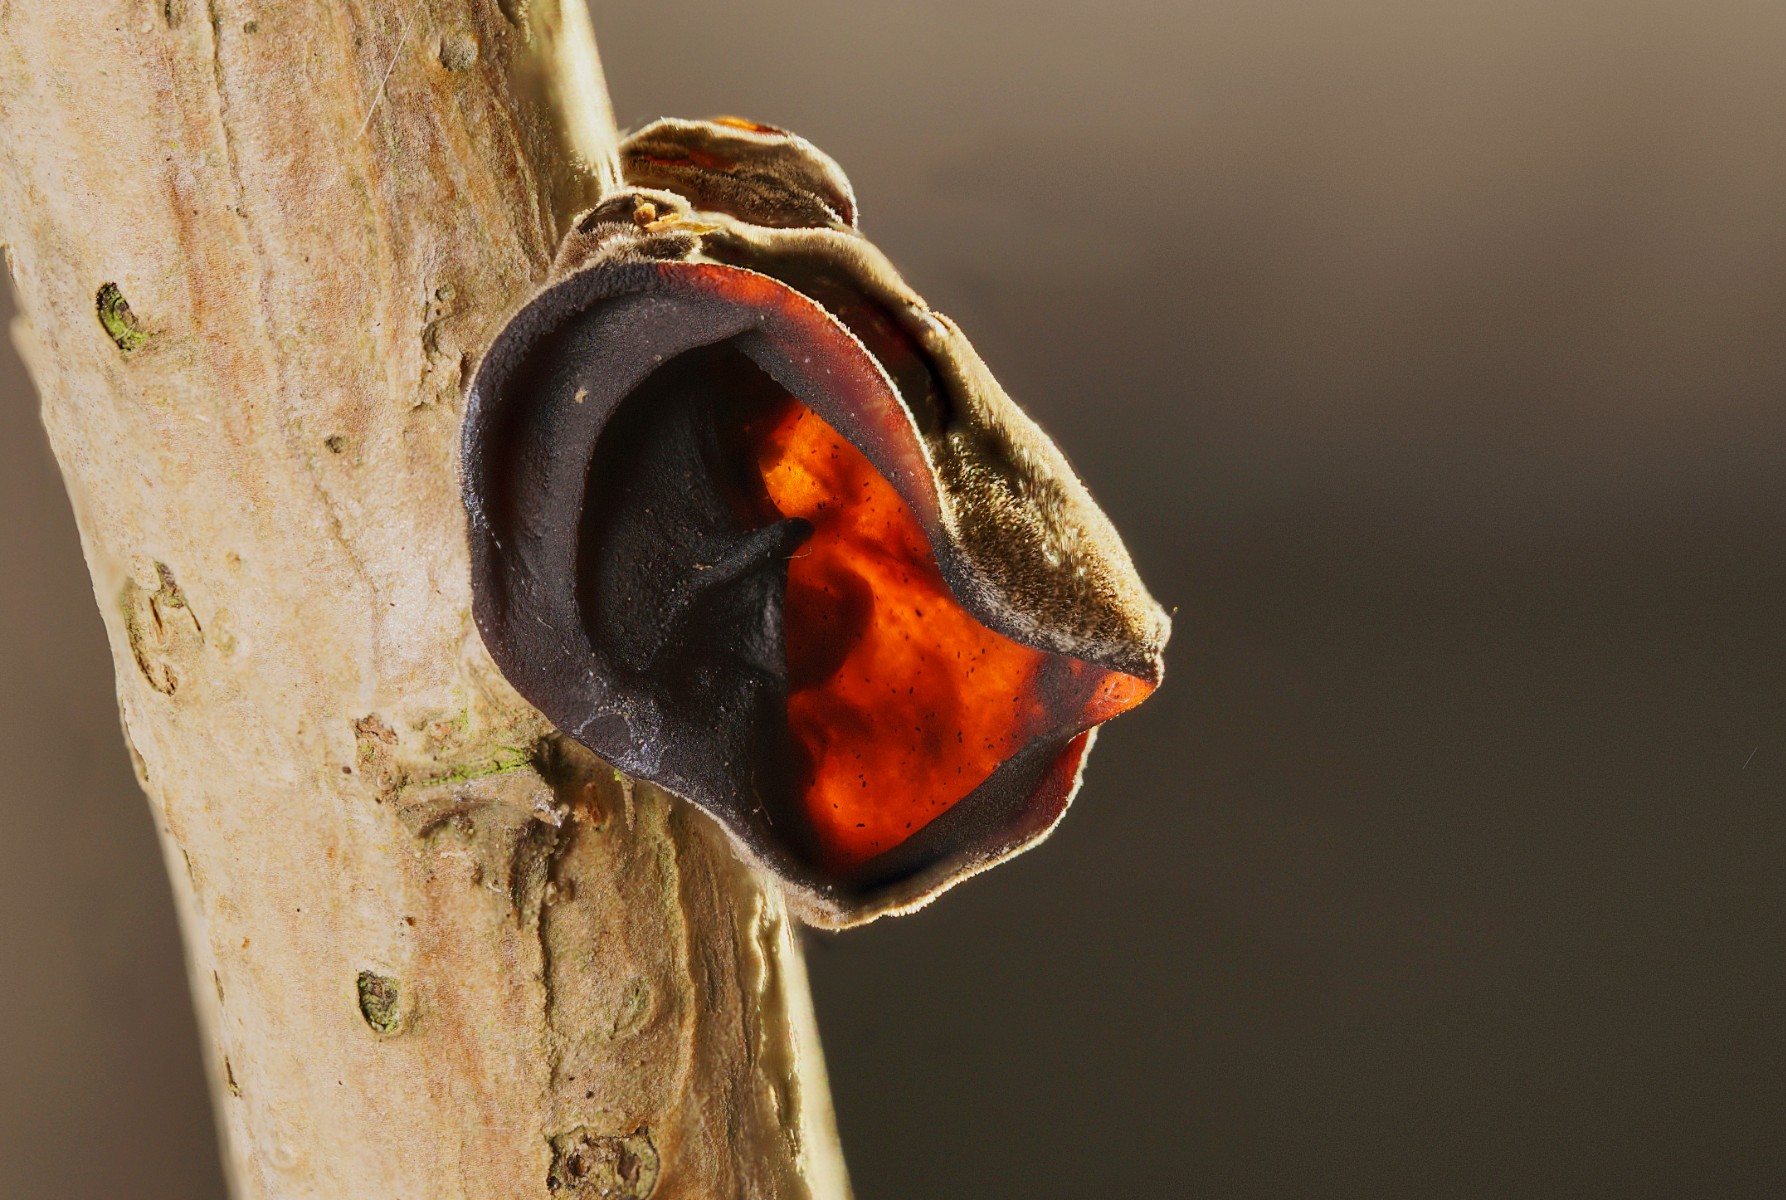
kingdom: Fungi
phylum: Basidiomycota
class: Agaricomycetes
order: Auriculariales
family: Auriculariaceae
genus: Auricularia
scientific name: Auricularia auricula-judae
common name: almindelig judasøre
